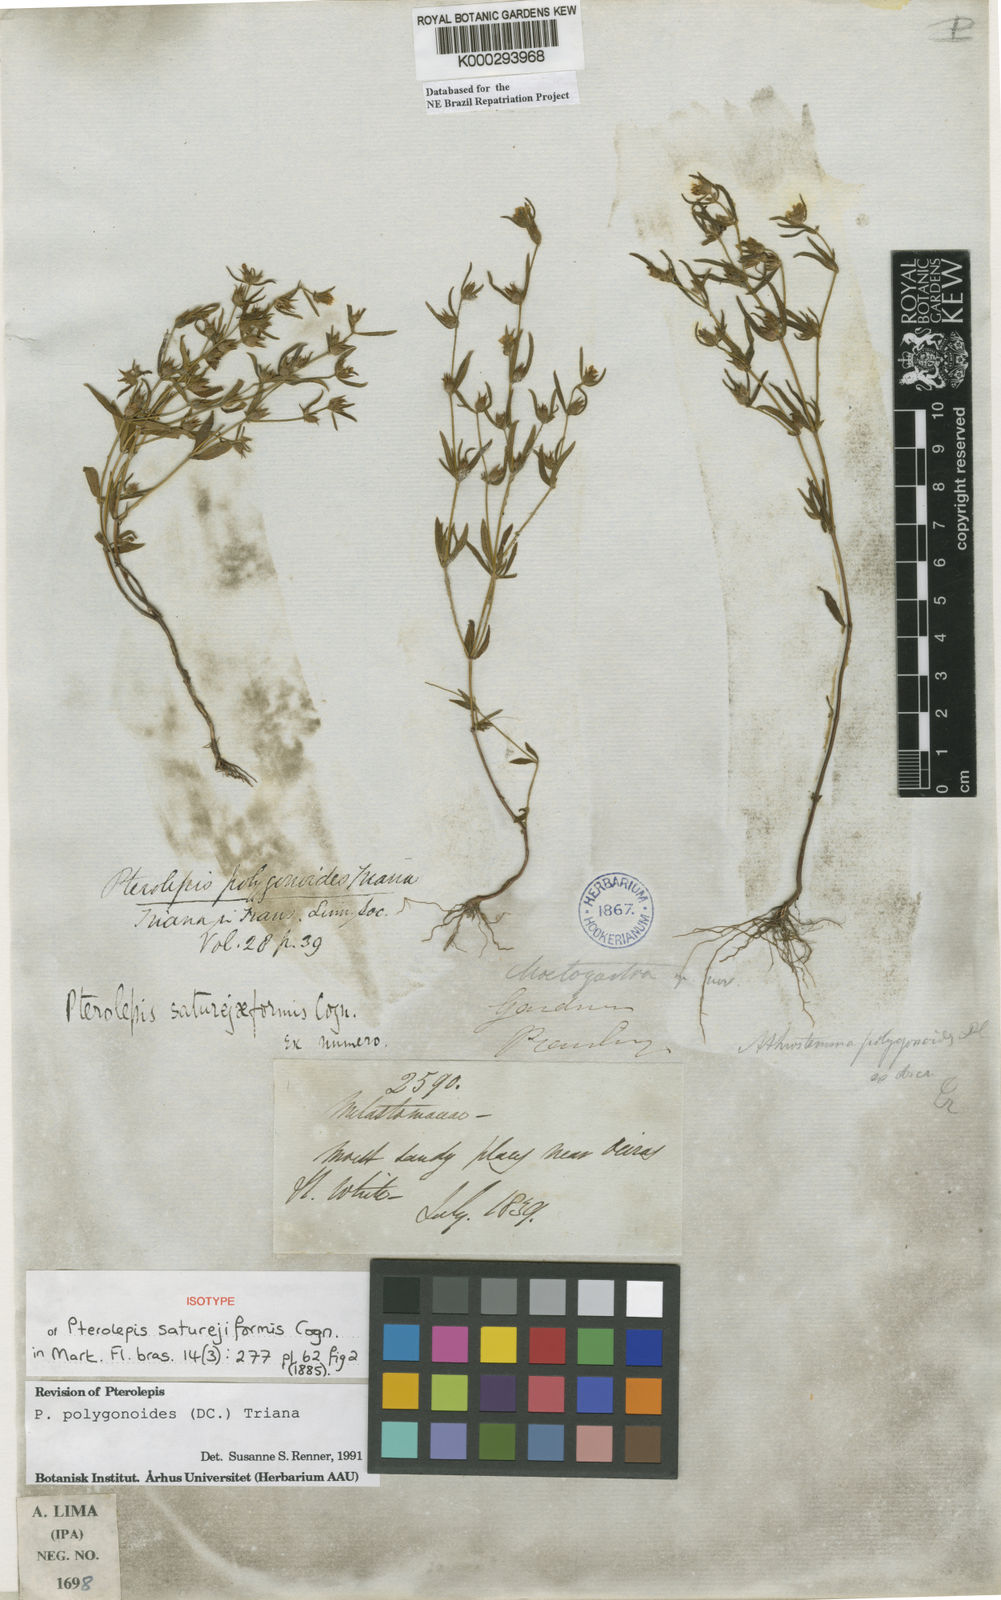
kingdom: Plantae
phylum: Tracheophyta
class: Magnoliopsida
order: Myrtales
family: Melastomataceae
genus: Pterolepis
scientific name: Pterolepis polygonoides
